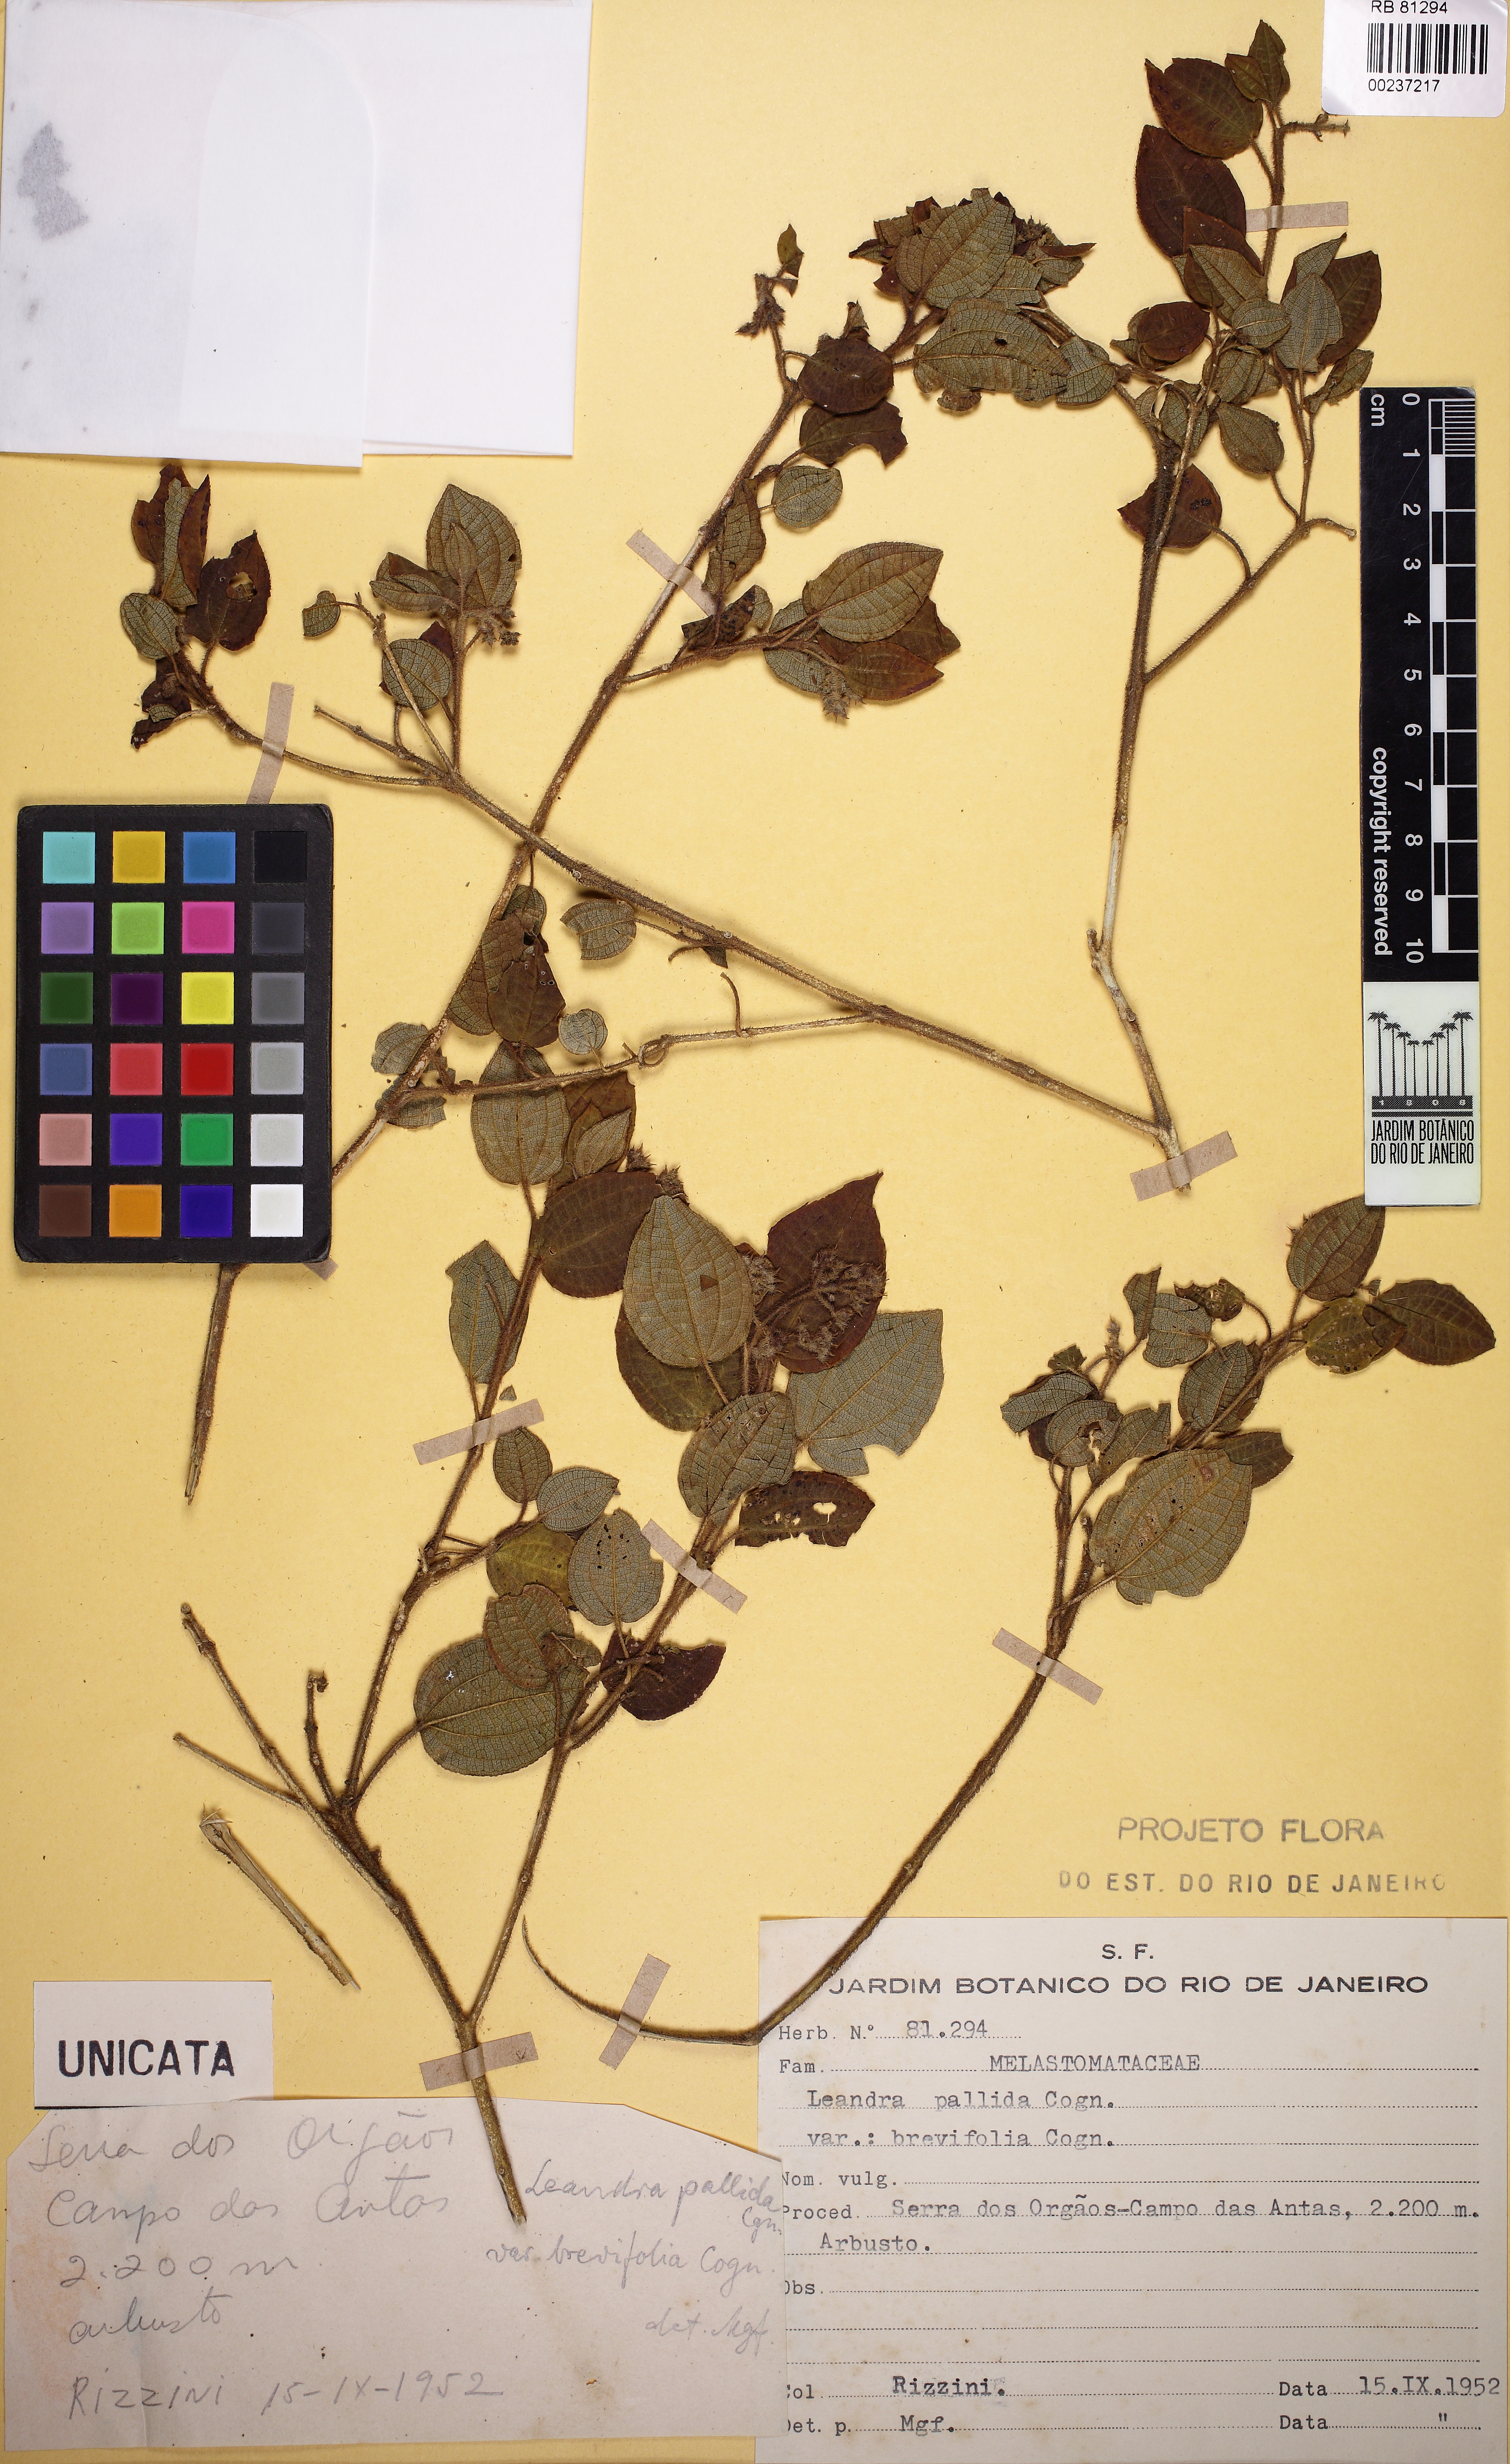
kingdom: Plantae
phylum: Tracheophyta
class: Magnoliopsida
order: Myrtales
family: Melastomataceae
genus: Miconia
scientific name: Miconia leapallida
